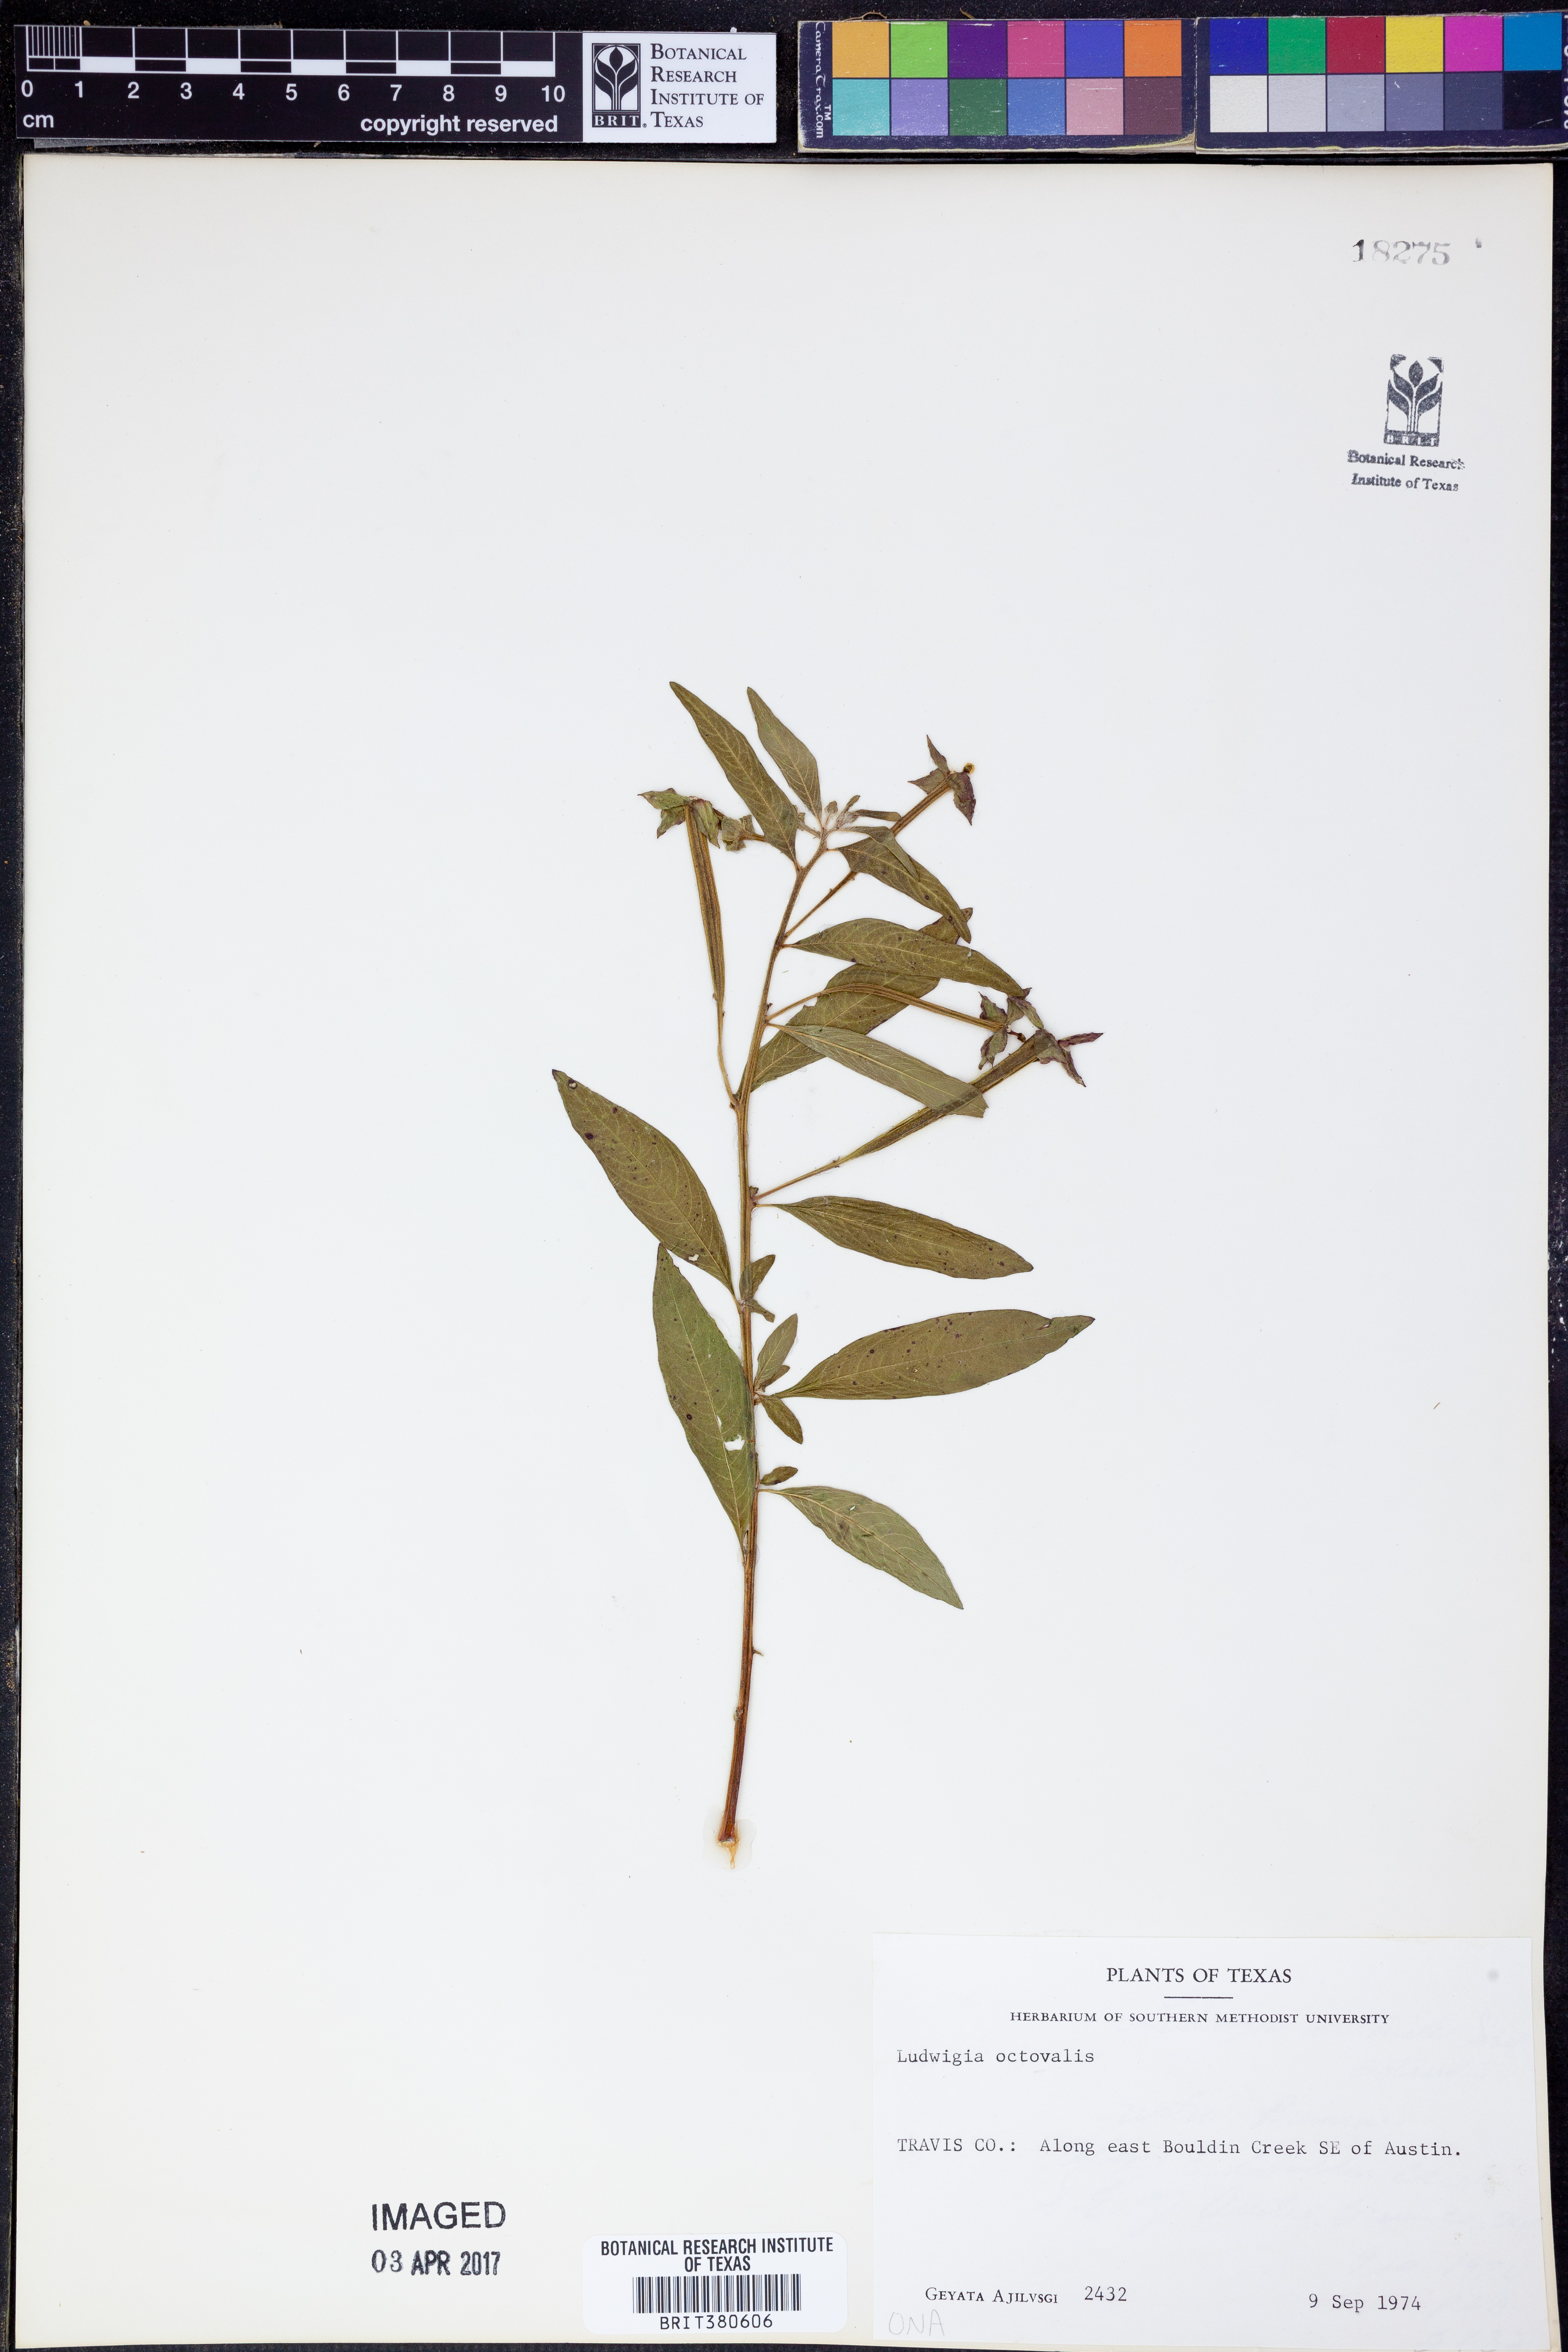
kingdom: Plantae
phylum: Tracheophyta
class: Magnoliopsida
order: Myrtales
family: Onagraceae
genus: Ludwigia
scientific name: Ludwigia octovalvis
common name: Water-primrose
